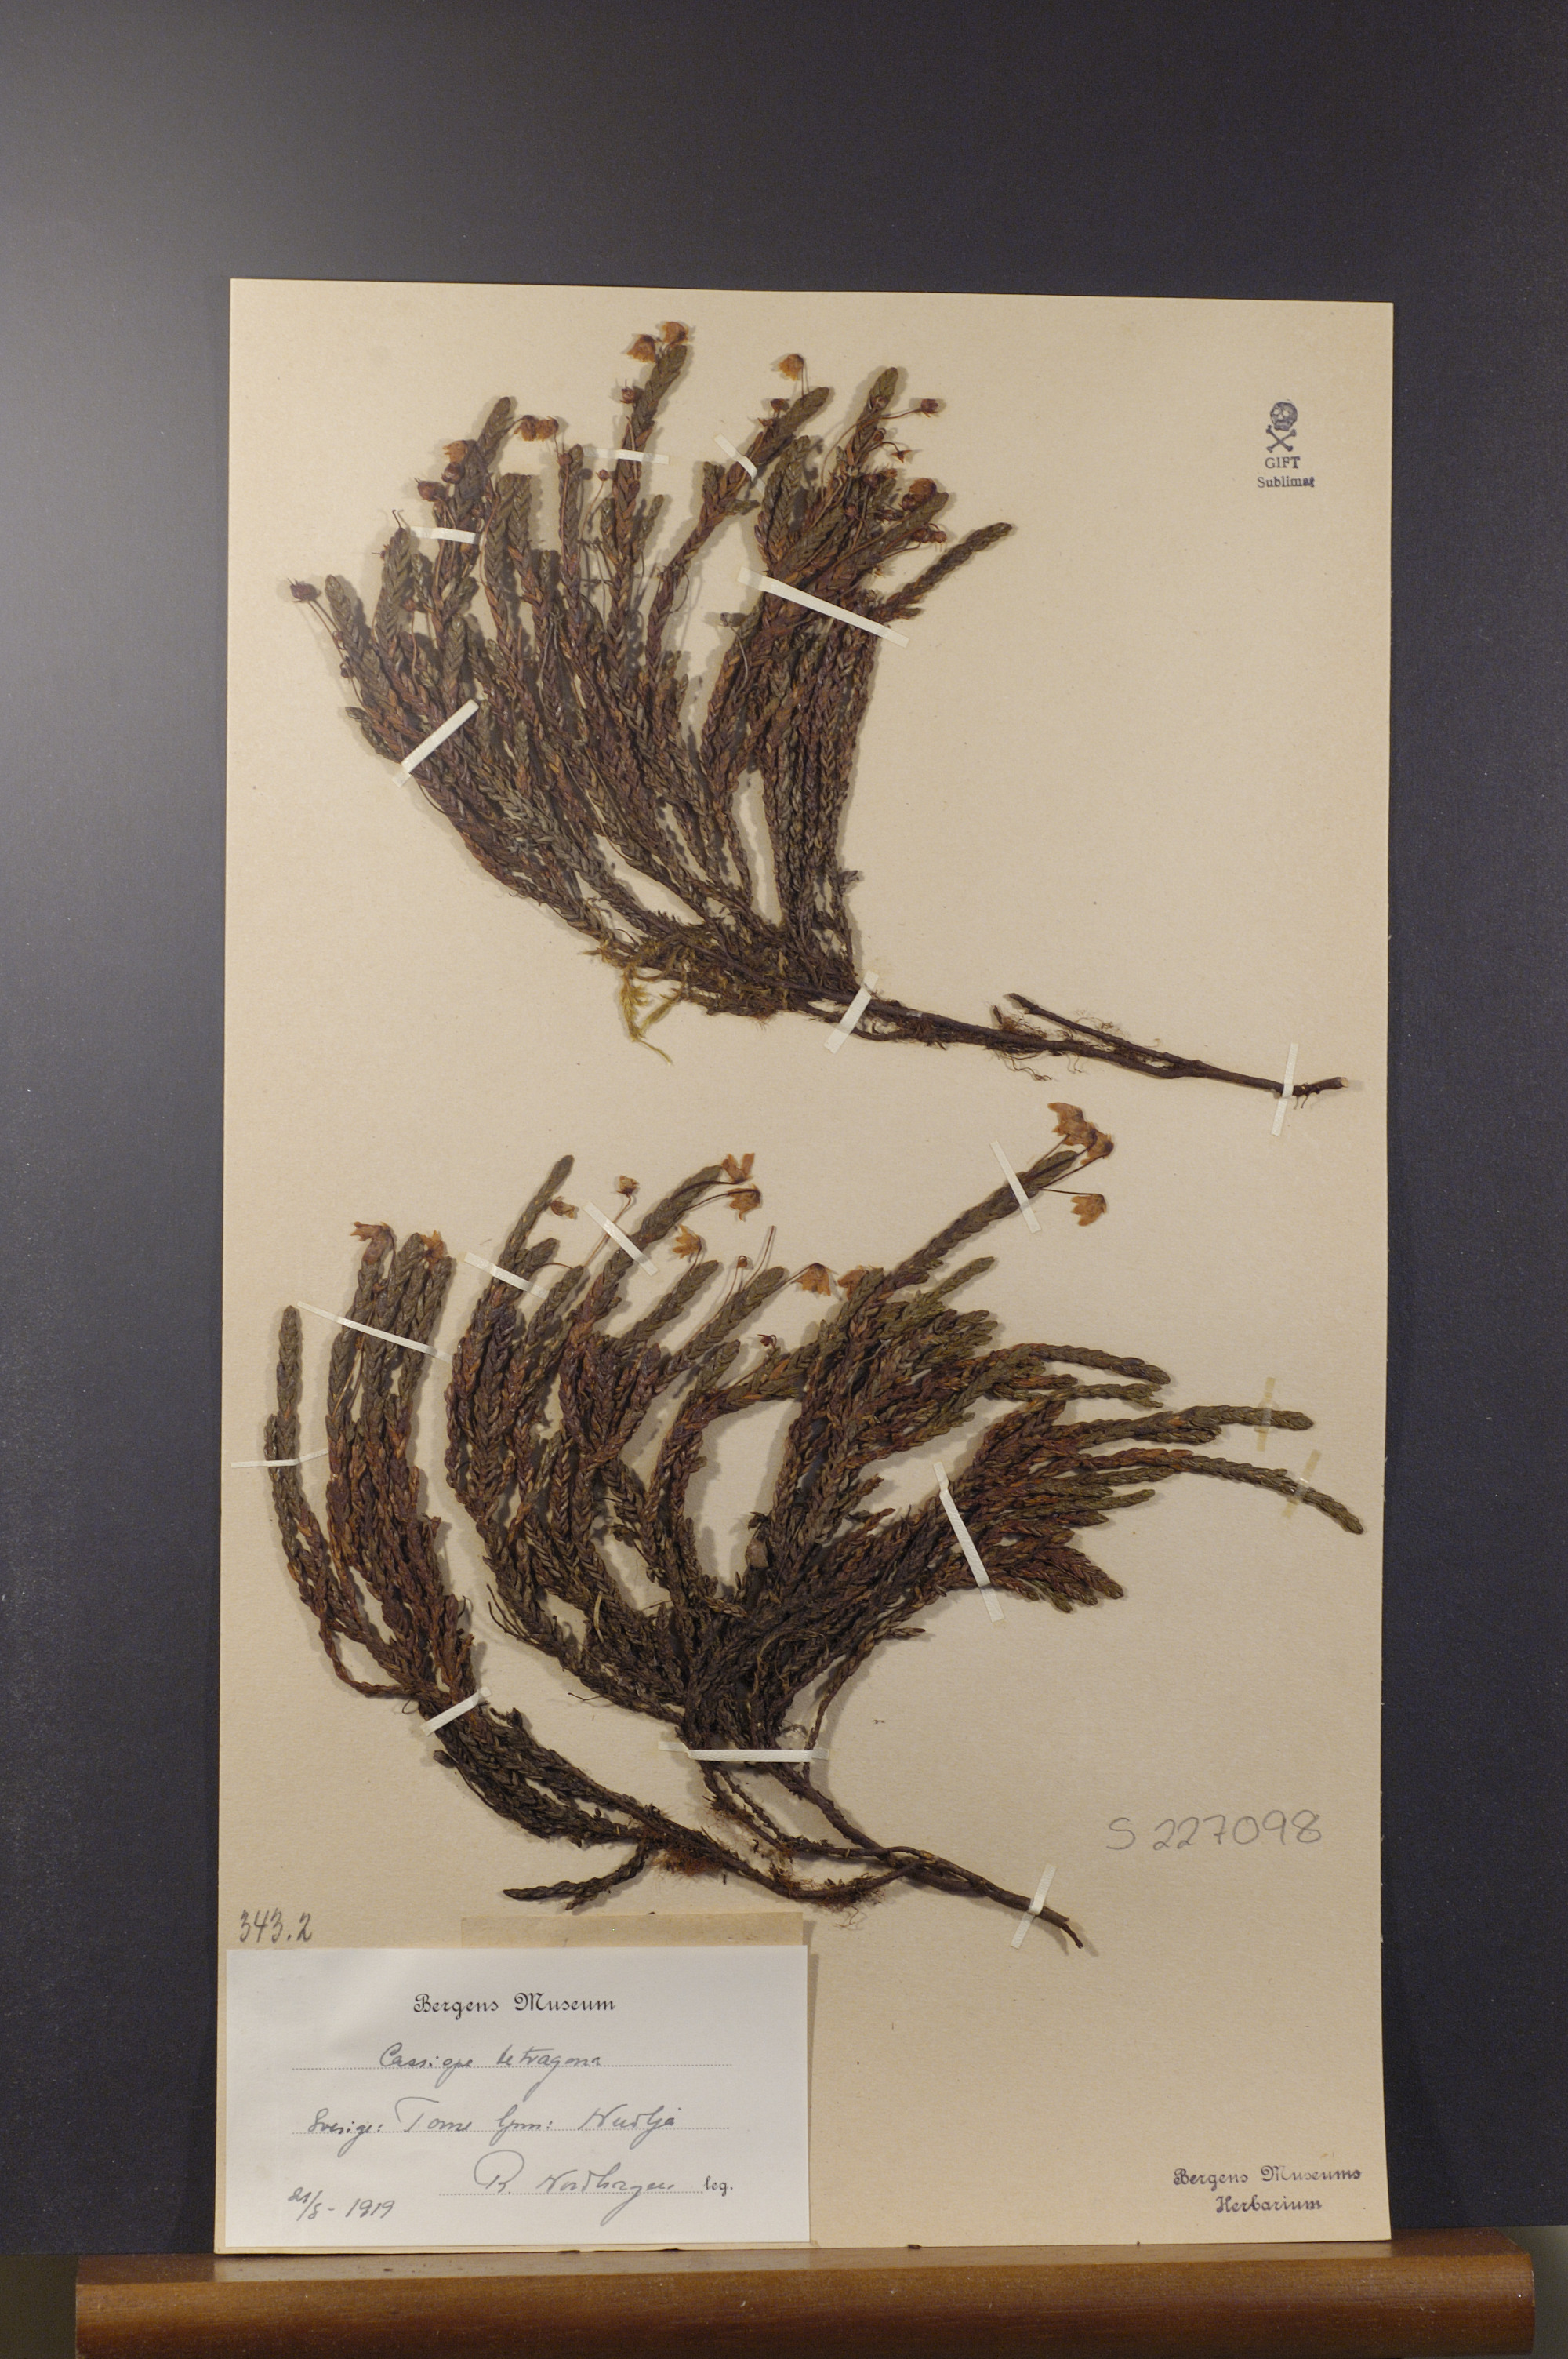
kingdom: Plantae
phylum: Tracheophyta
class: Magnoliopsida
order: Ericales
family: Ericaceae
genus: Cassiope
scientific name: Cassiope tetragona
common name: Arctic bell heather
